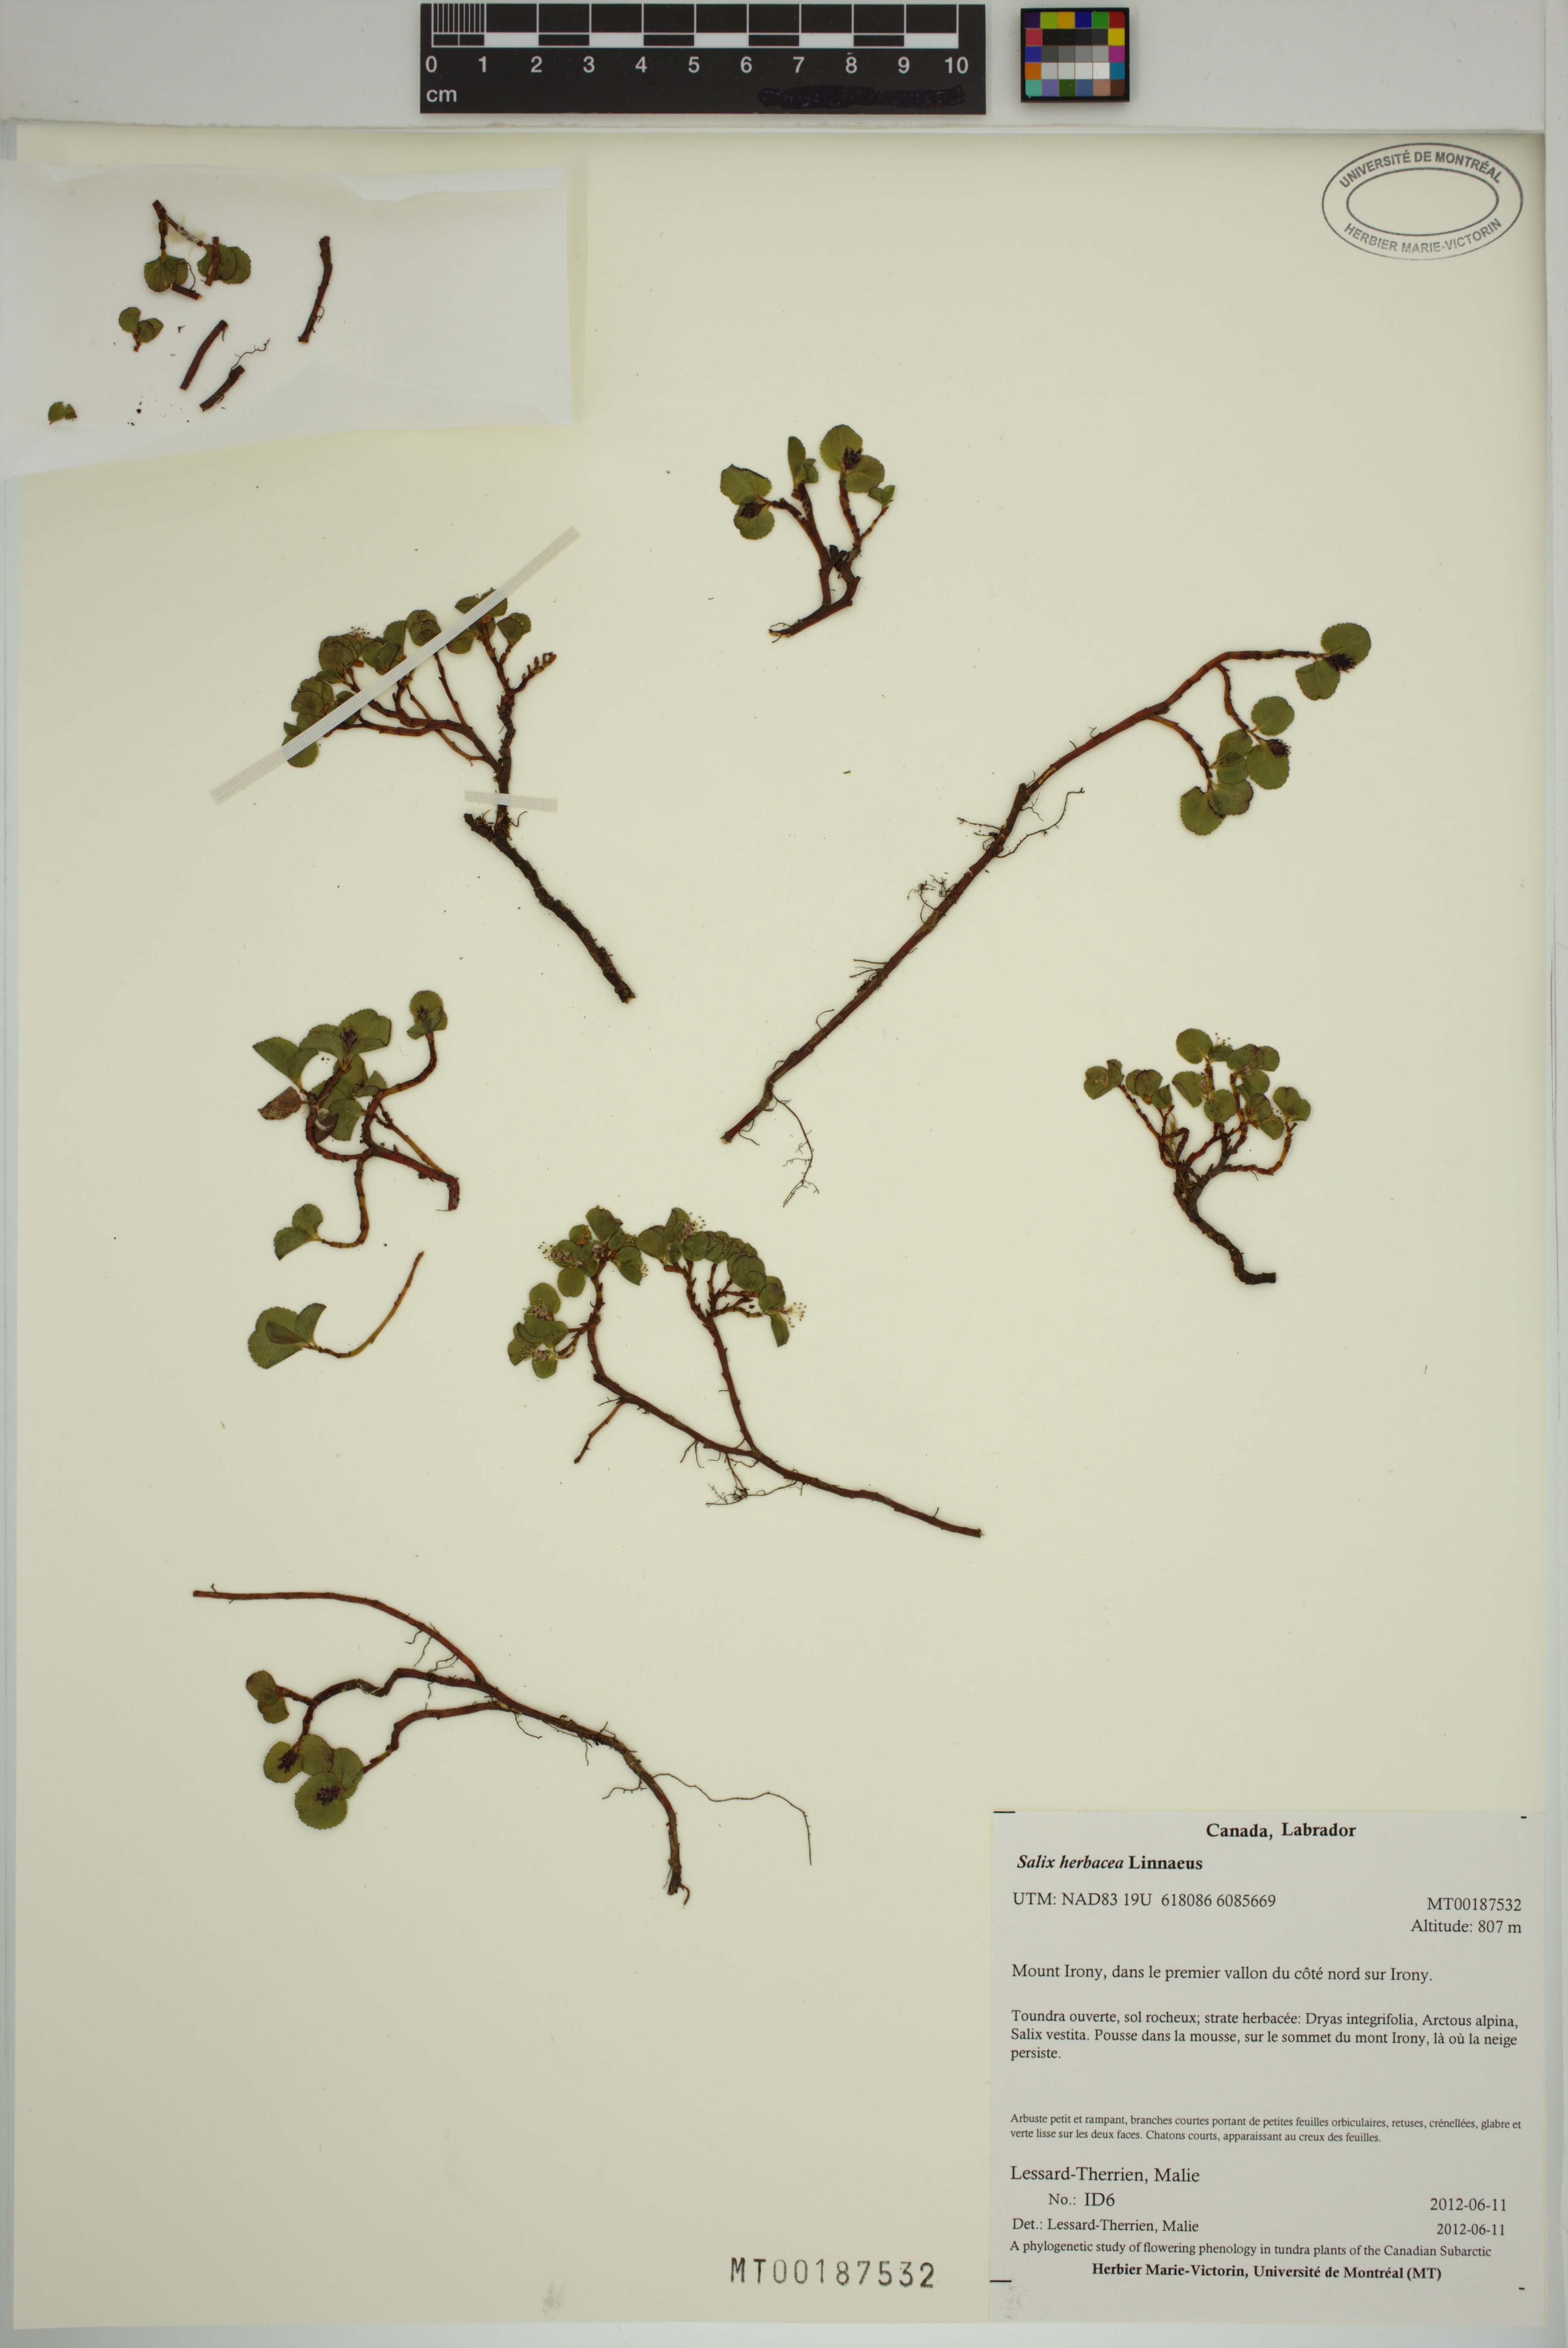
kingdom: Plantae
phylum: Tracheophyta
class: Magnoliopsida
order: Malpighiales
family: Salicaceae
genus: Salix
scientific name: Salix herbacea
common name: Dwarf willow
